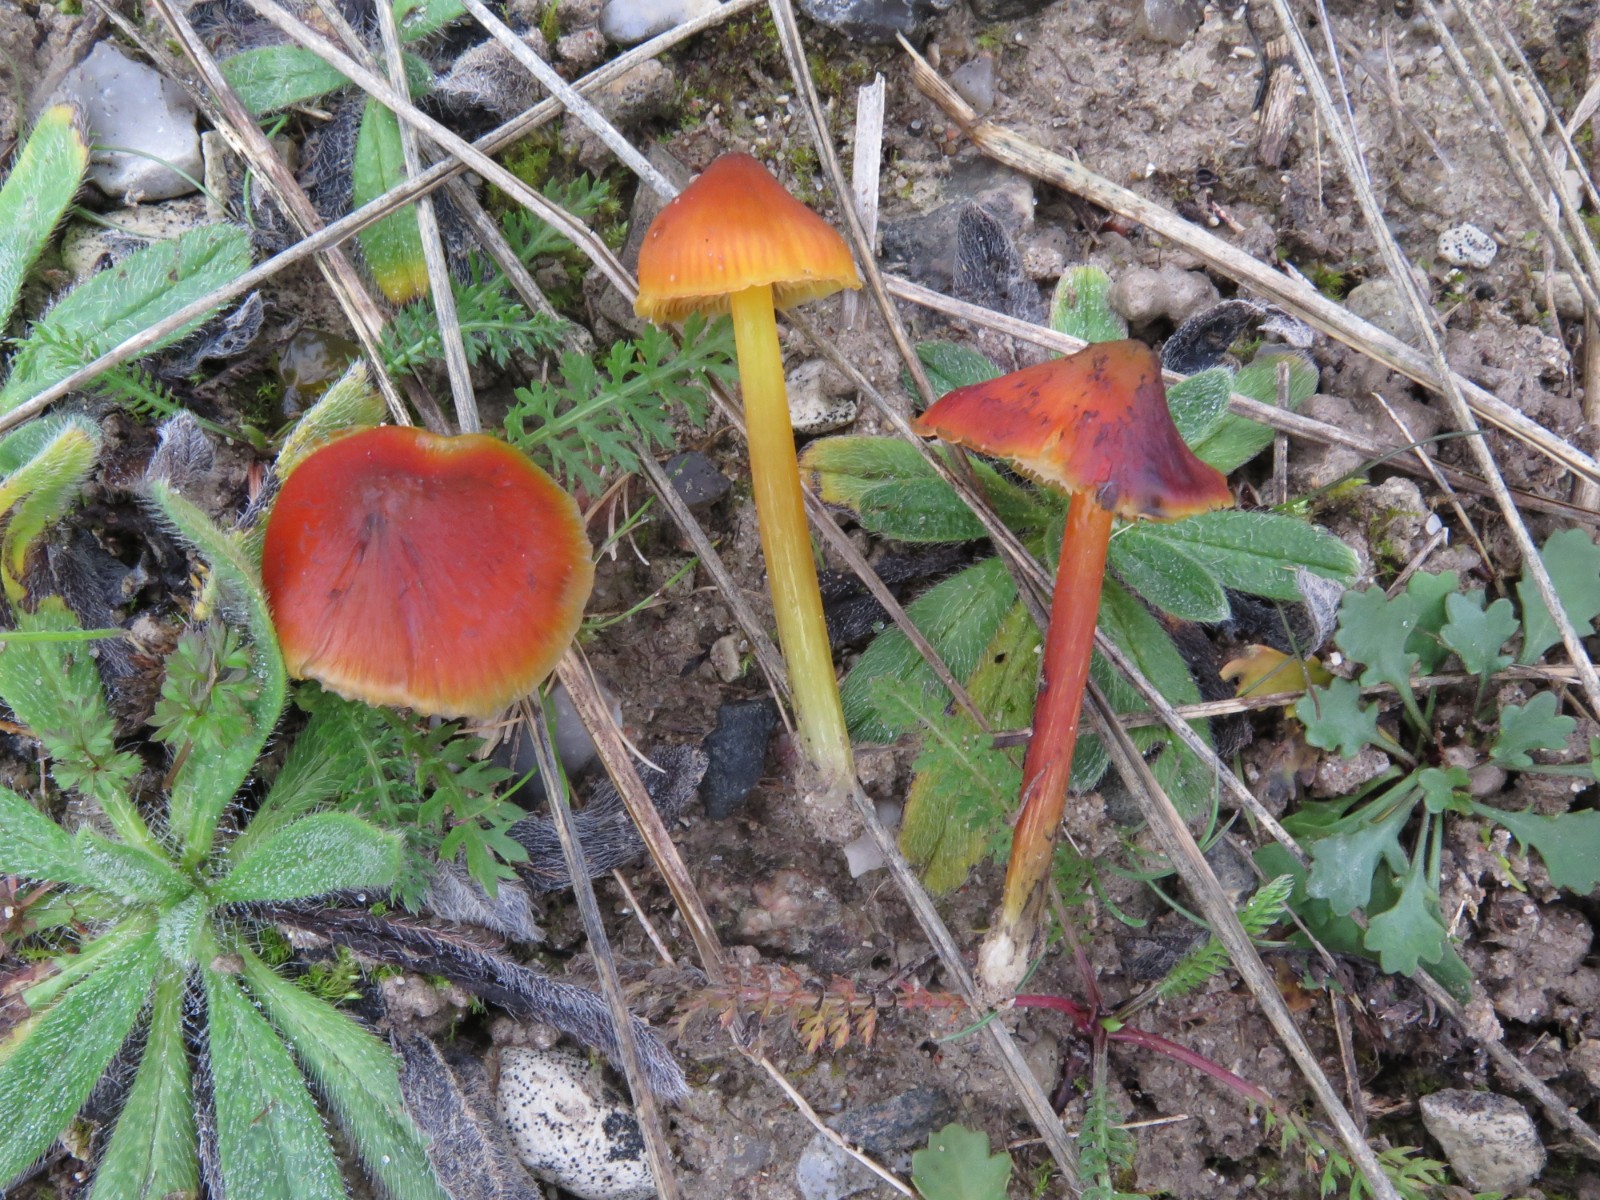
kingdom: Fungi
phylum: Basidiomycota
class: Agaricomycetes
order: Agaricales
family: Hygrophoraceae
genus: Hygrocybe
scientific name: Hygrocybe conica
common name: kegle-vokshat
